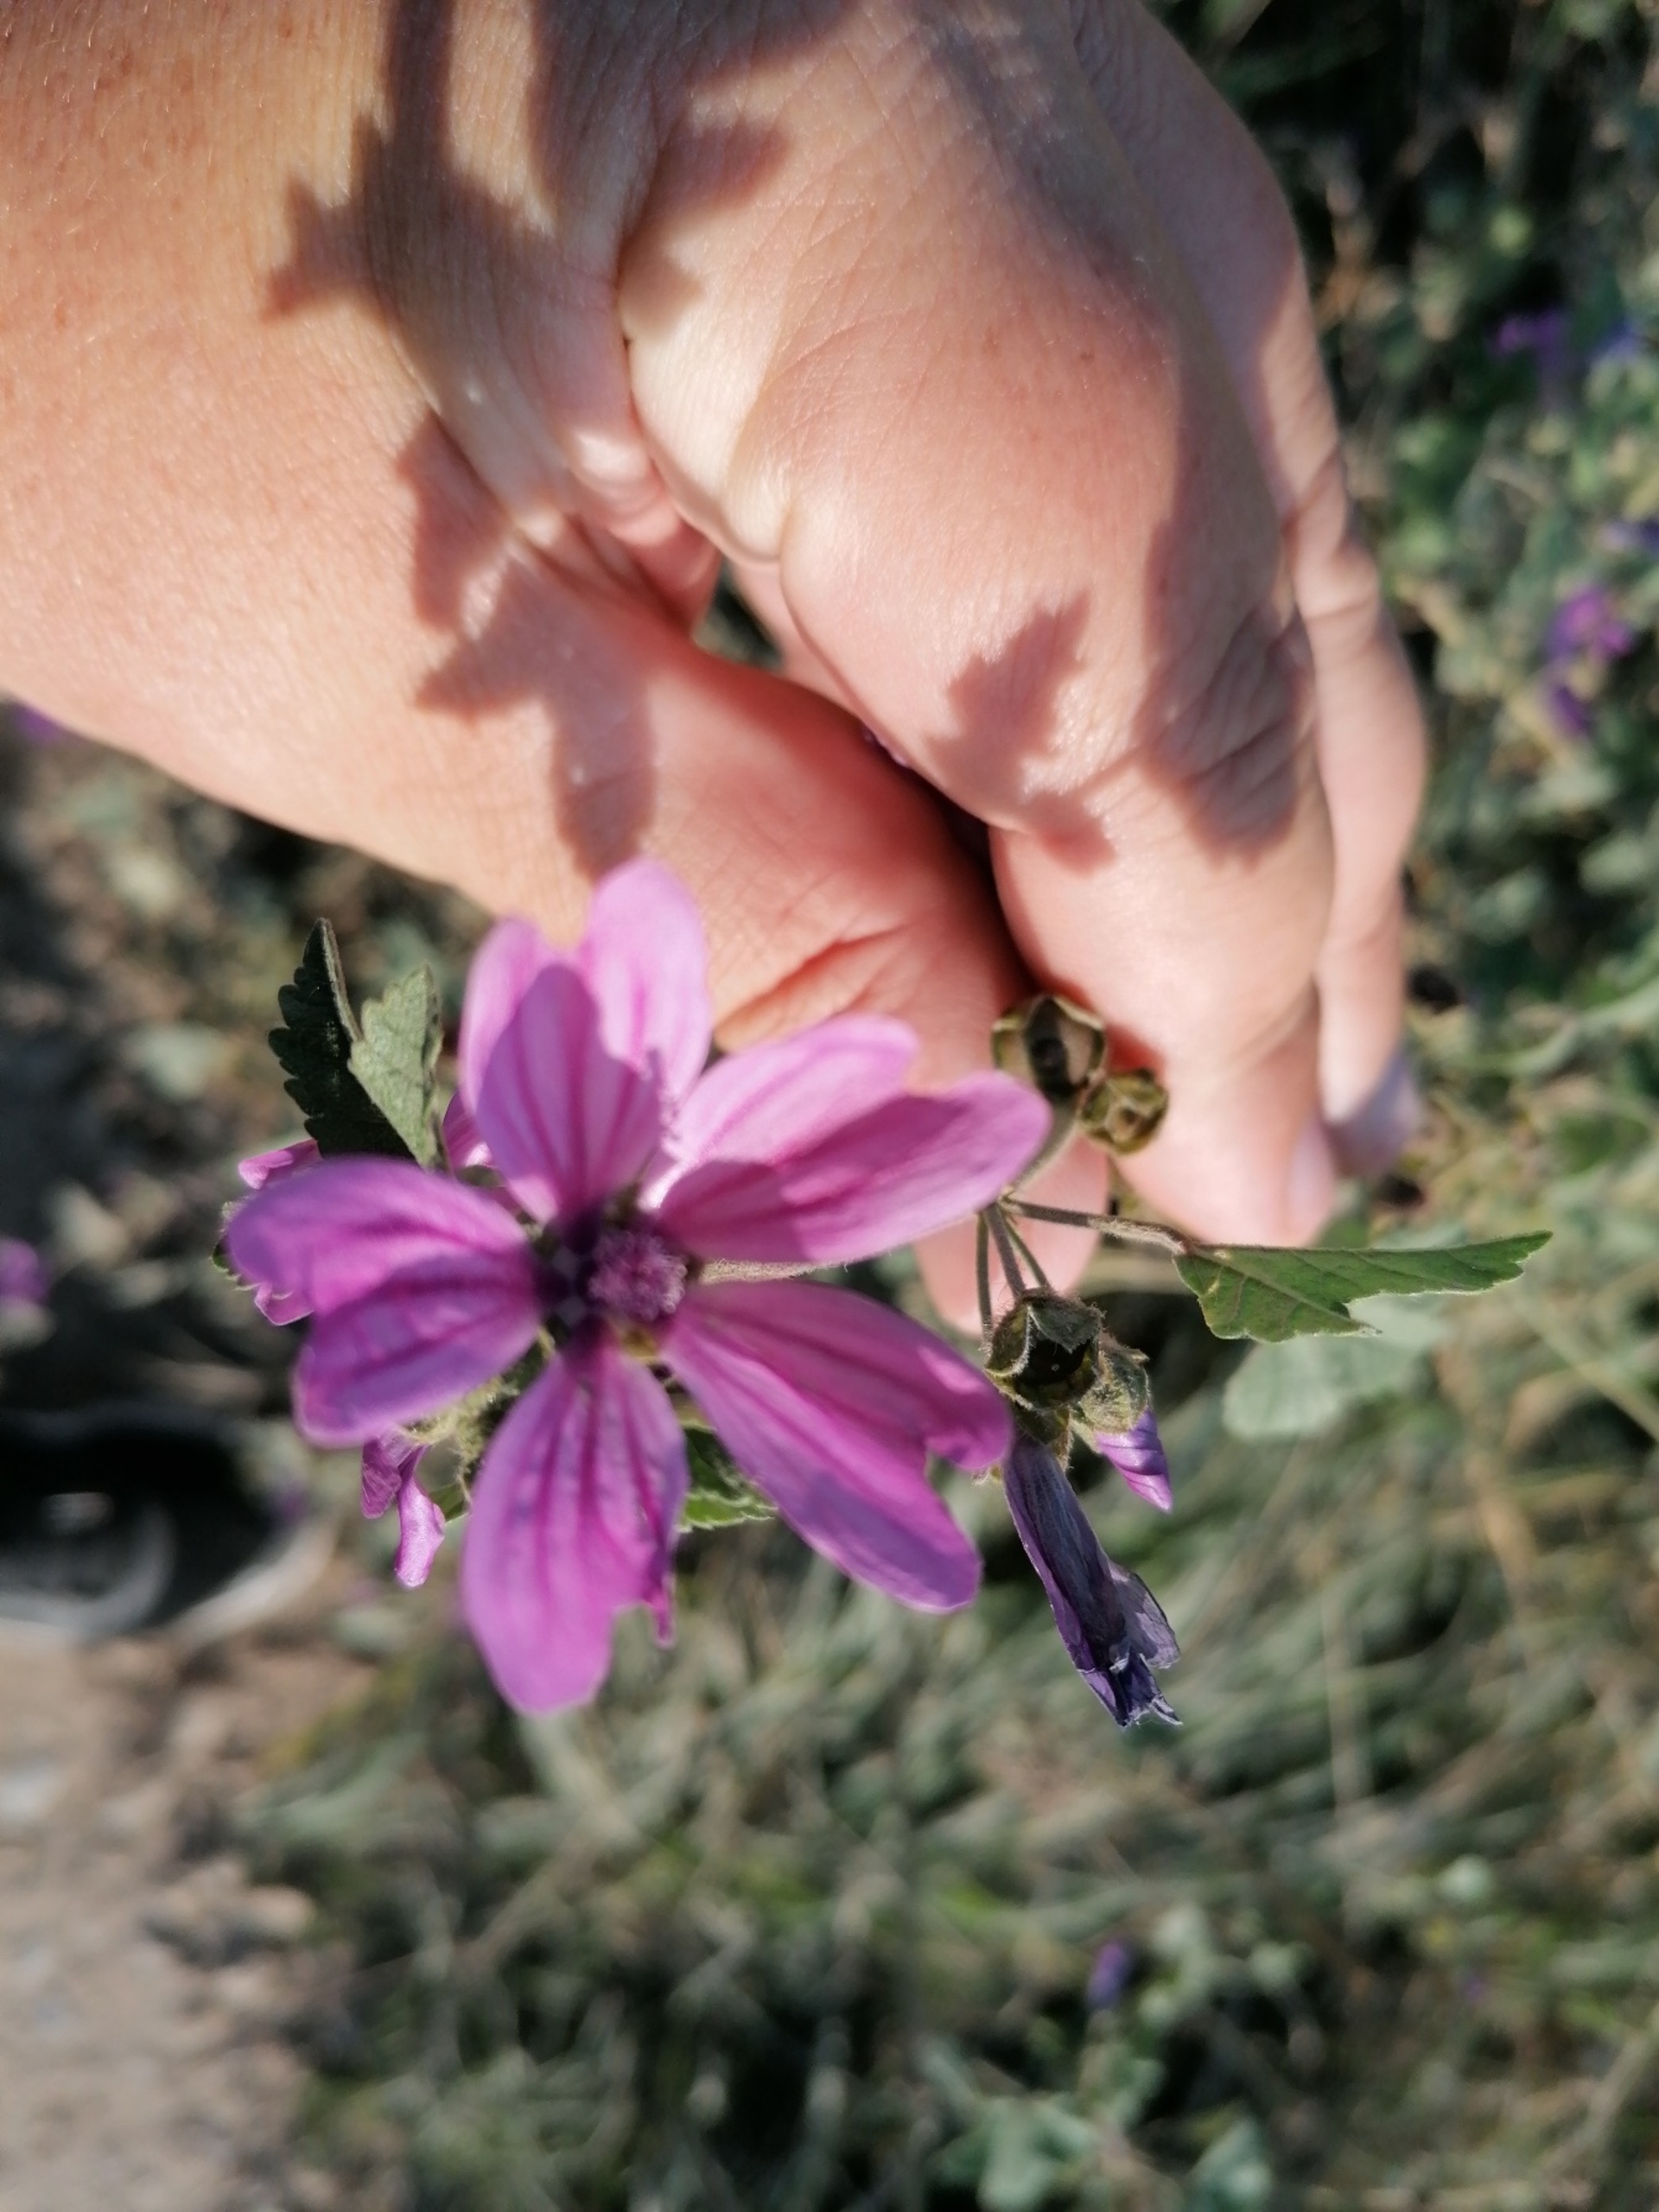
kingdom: Plantae
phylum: Tracheophyta
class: Magnoliopsida
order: Malvales
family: Malvaceae
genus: Malva
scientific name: Malva sylvestris
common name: Almindelig katost
